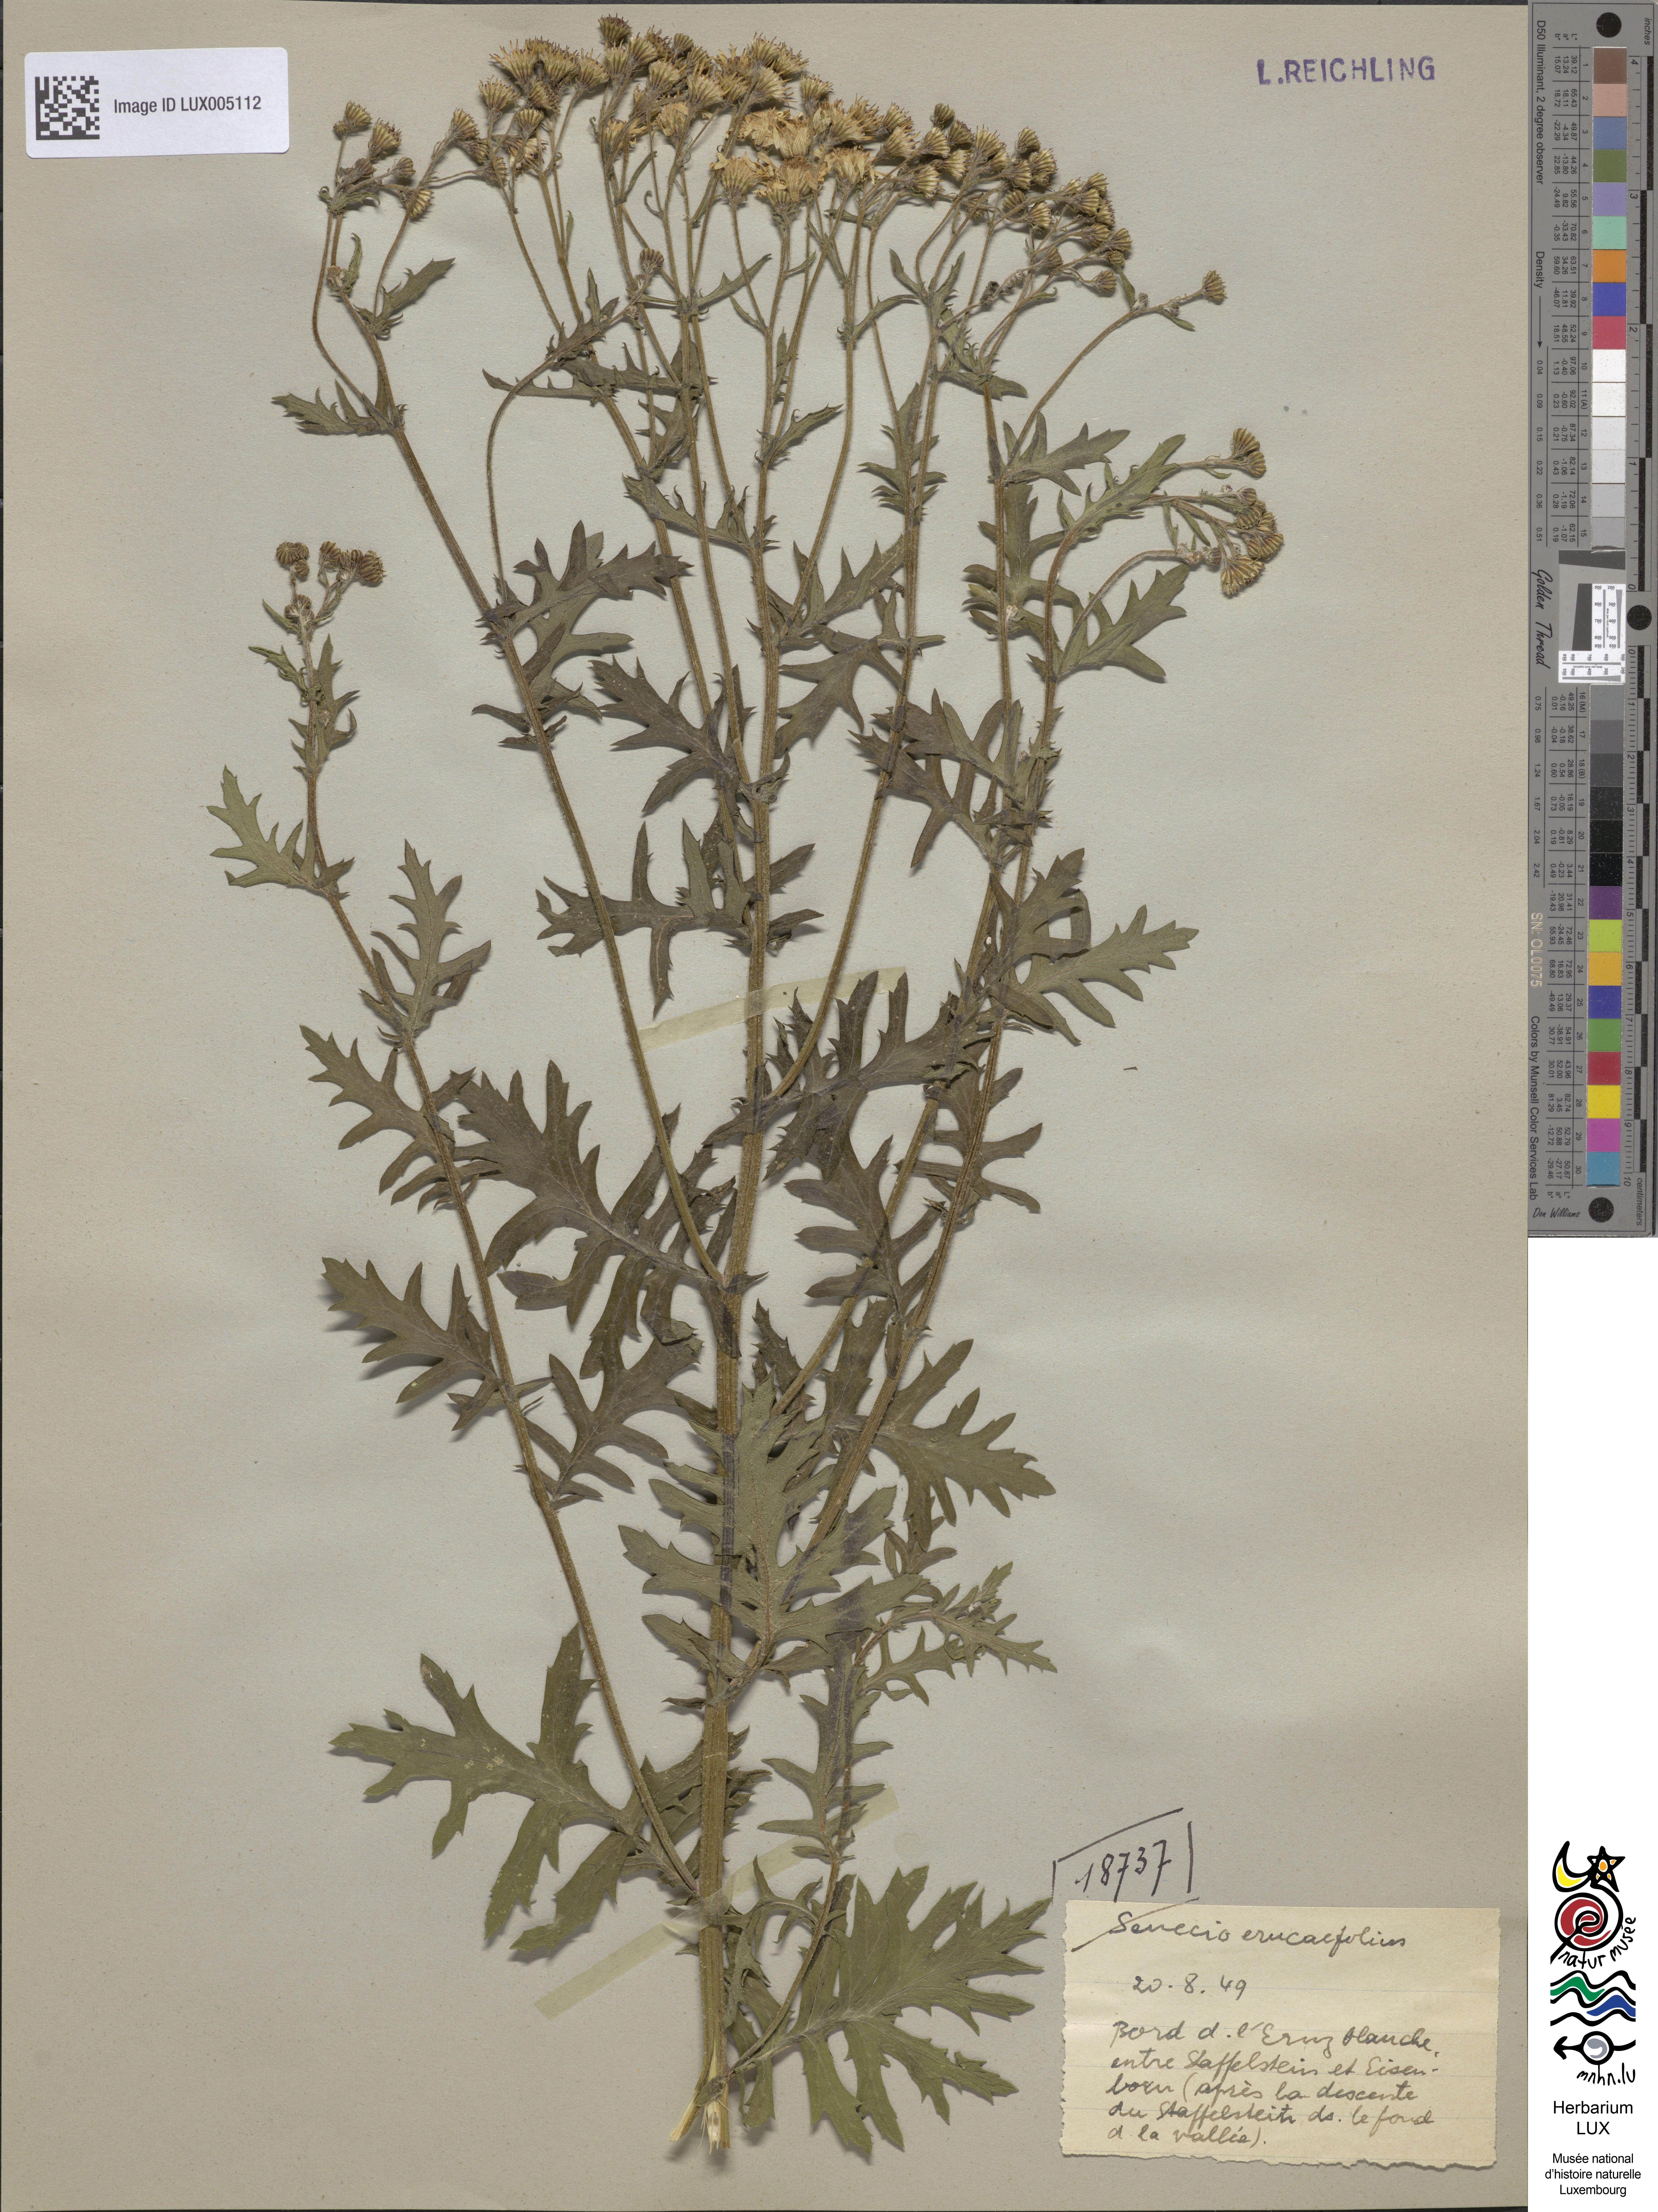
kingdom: Plantae
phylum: Tracheophyta
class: Magnoliopsida
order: Asterales
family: Asteraceae
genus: Jacobaea
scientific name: Jacobaea erucifolia
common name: Hoary ragwort
